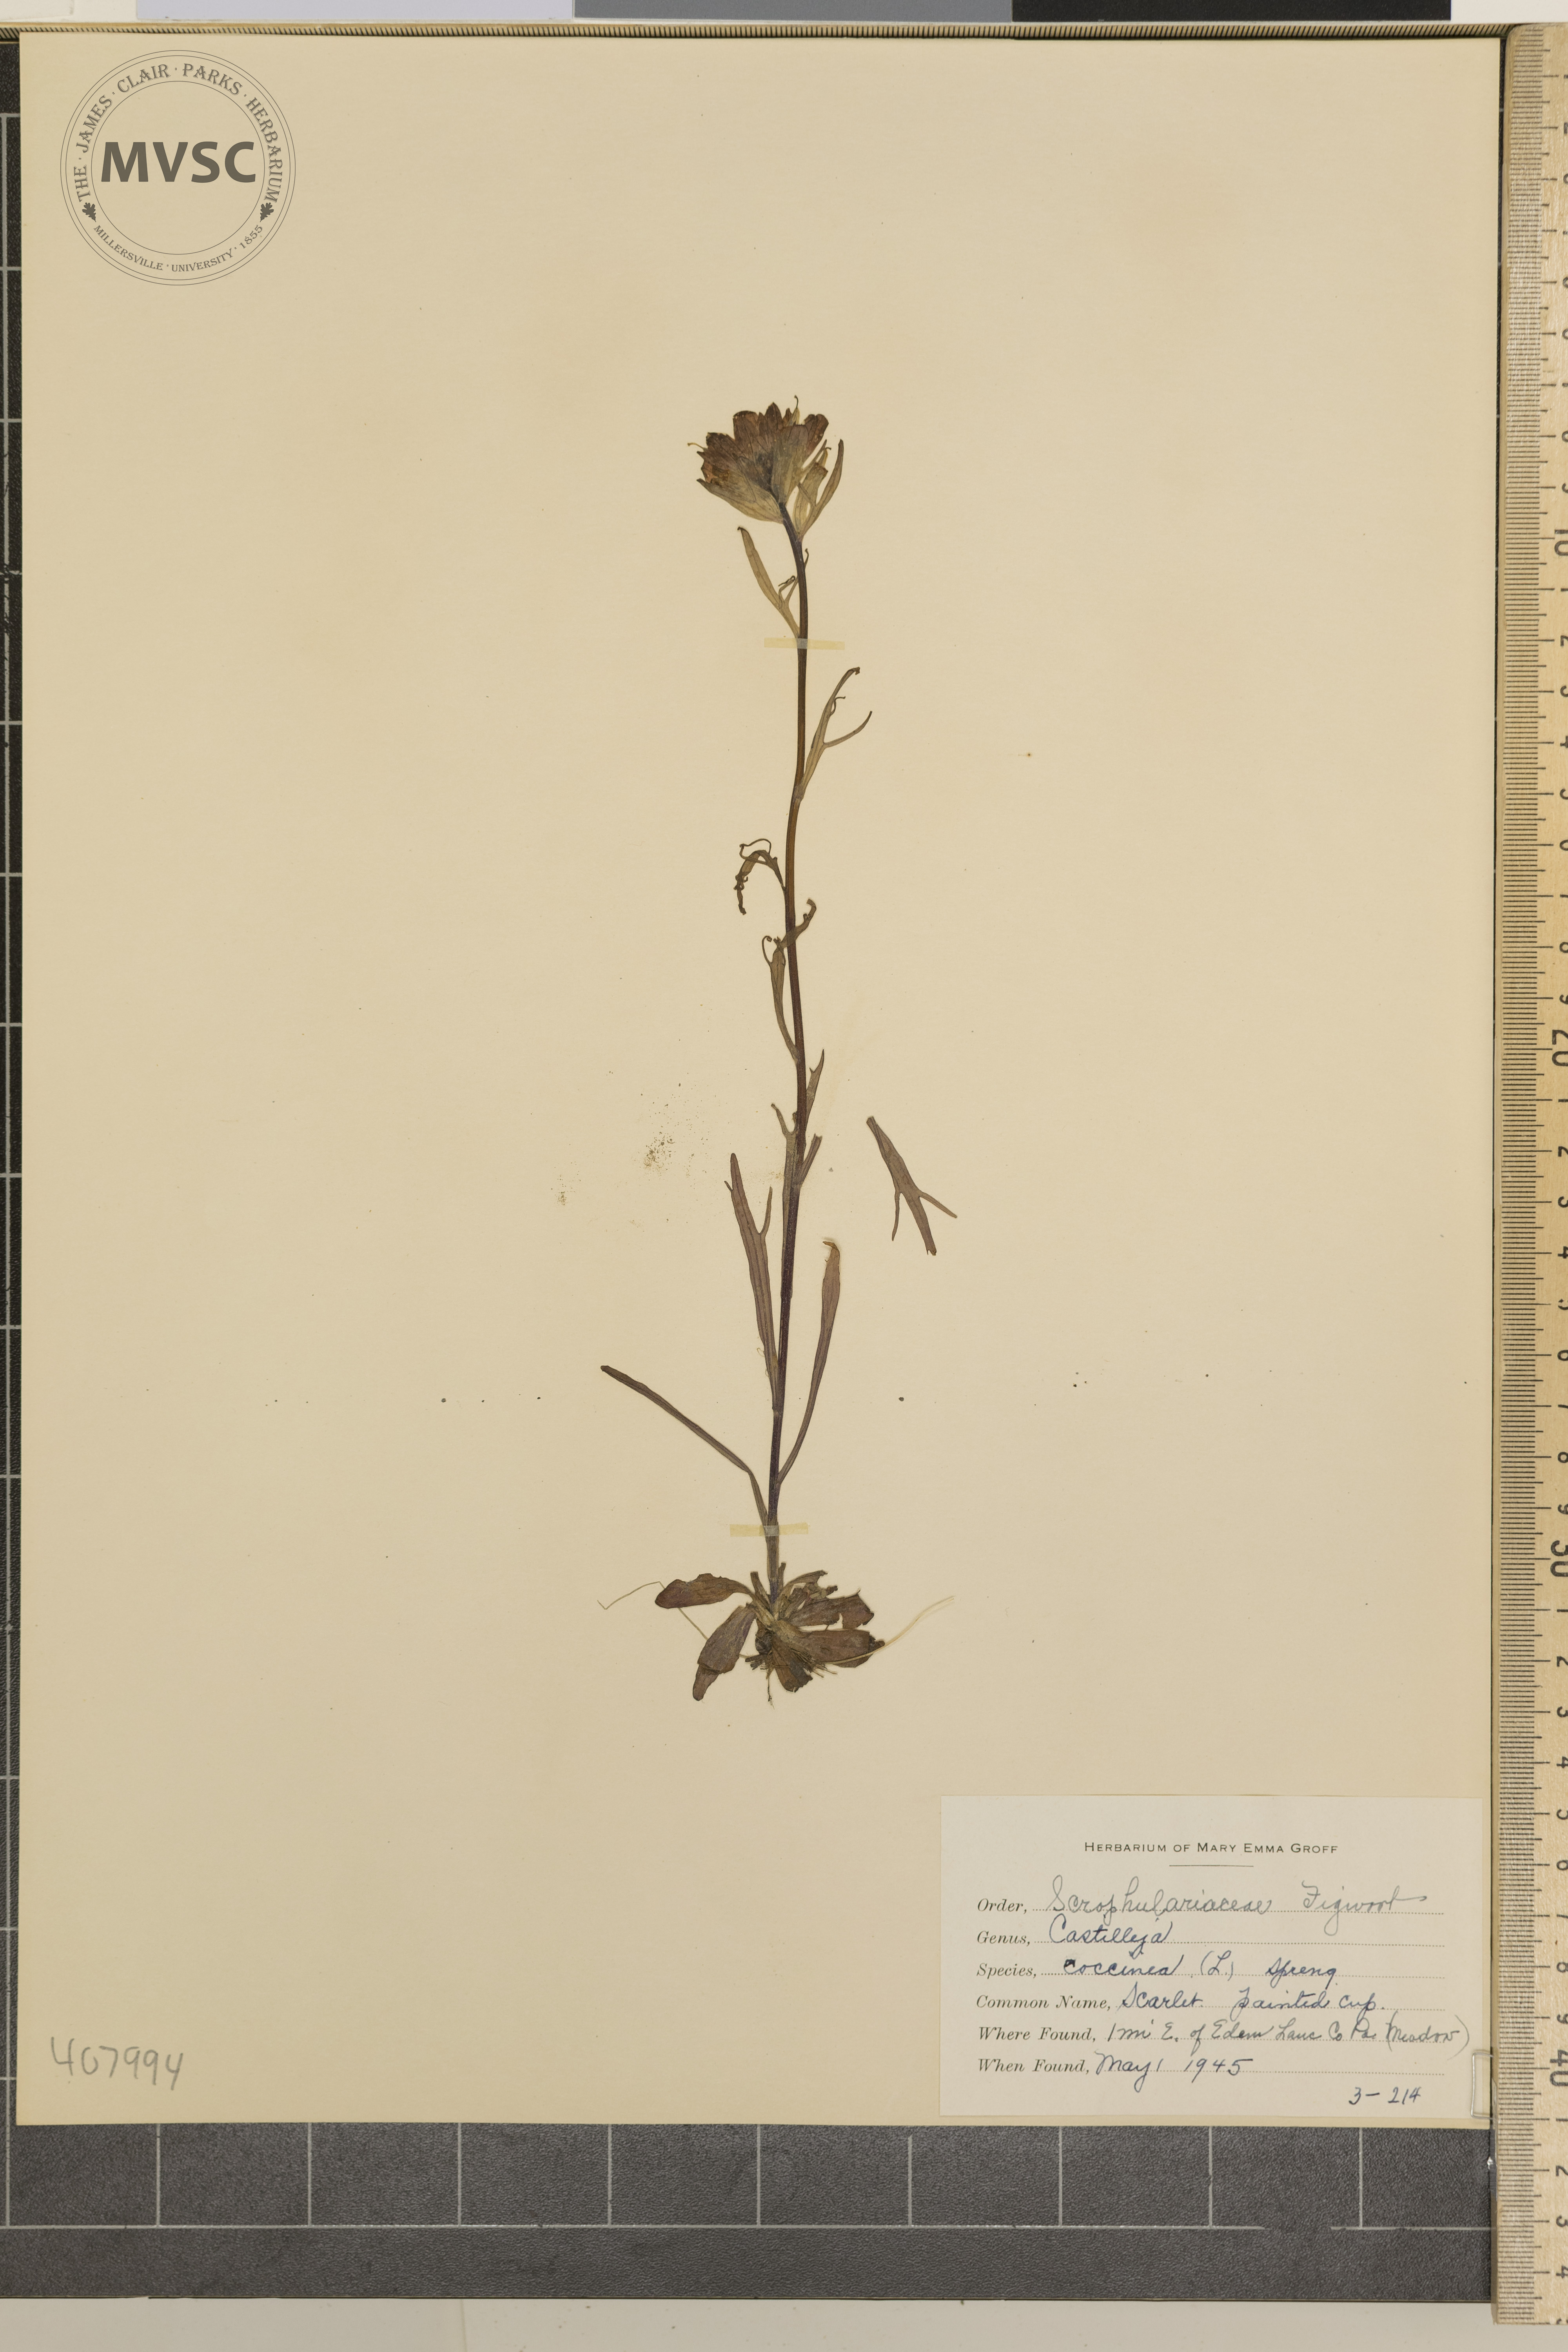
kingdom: Plantae
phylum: Tracheophyta
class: Magnoliopsida
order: Lamiales
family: Orobanchaceae
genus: Castilleja
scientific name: Castilleja coccinea
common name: Scarlet painted-cup
